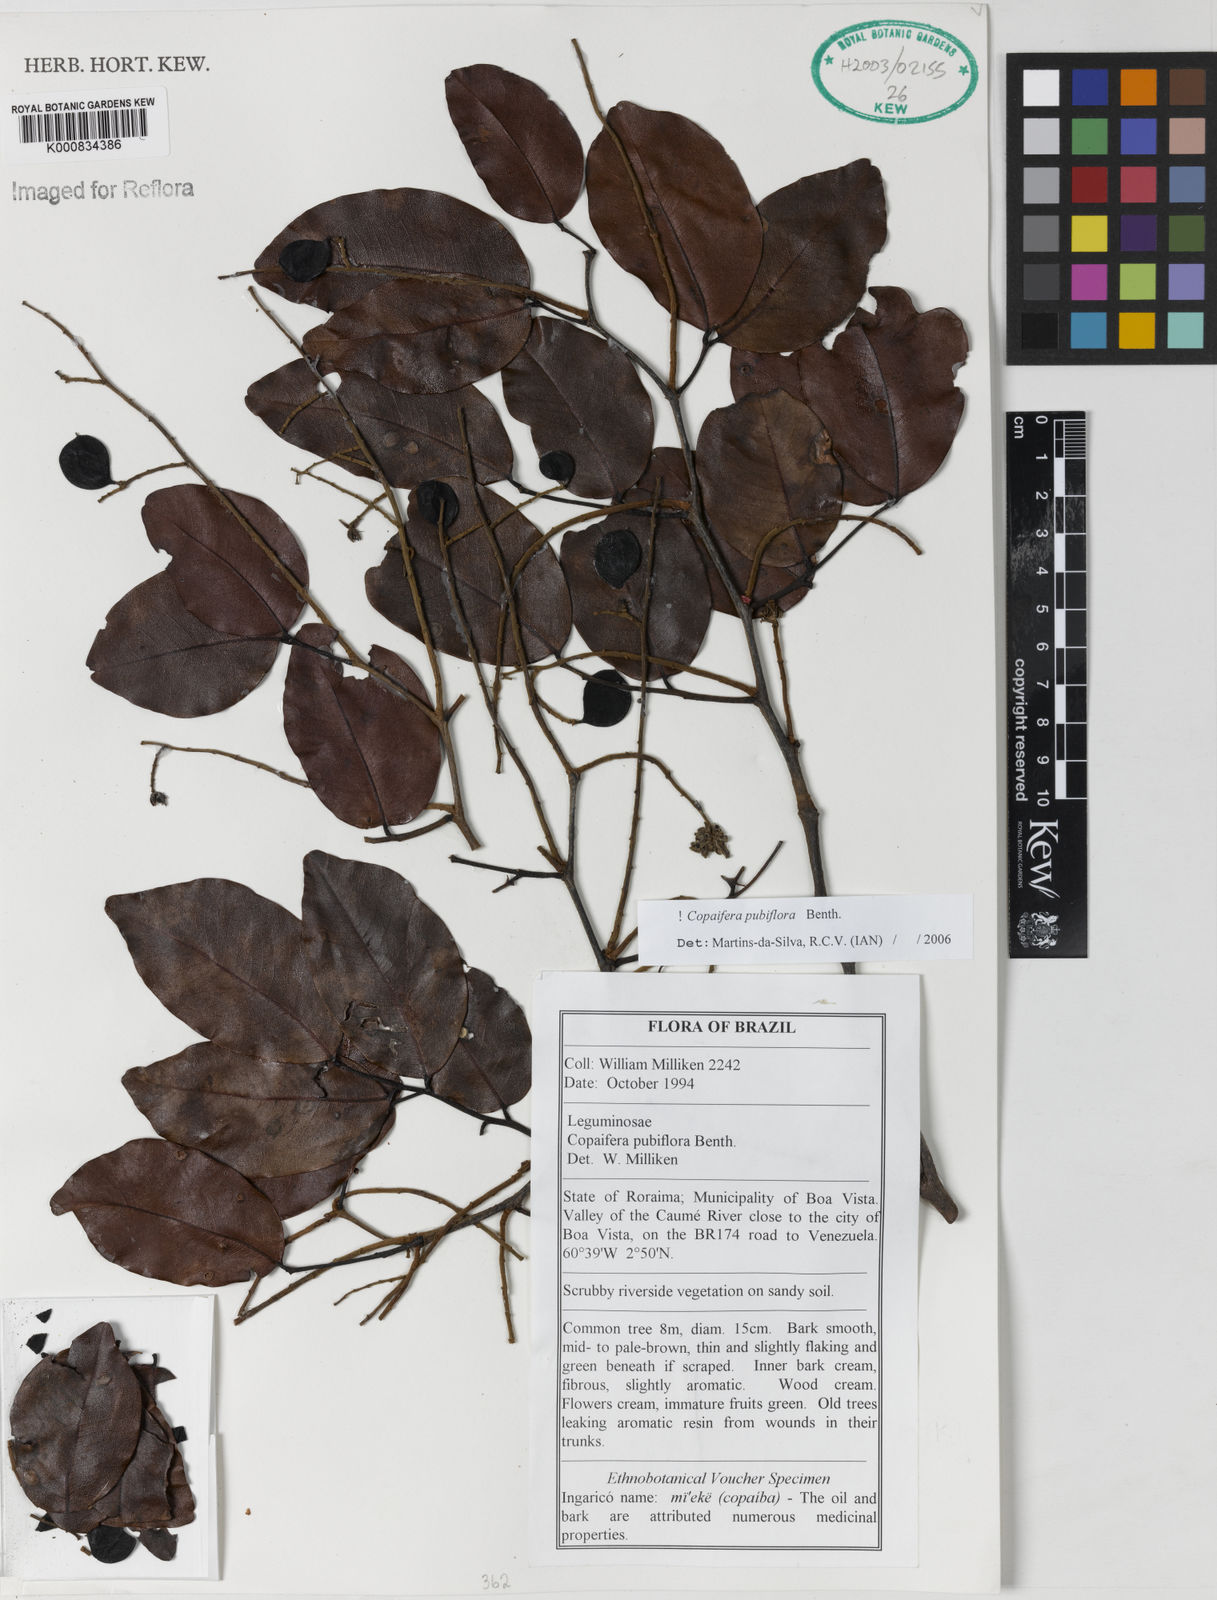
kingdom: Plantae
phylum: Tracheophyta
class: Magnoliopsida
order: Fabales
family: Fabaceae
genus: Copaifera
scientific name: Copaifera pubiflora
